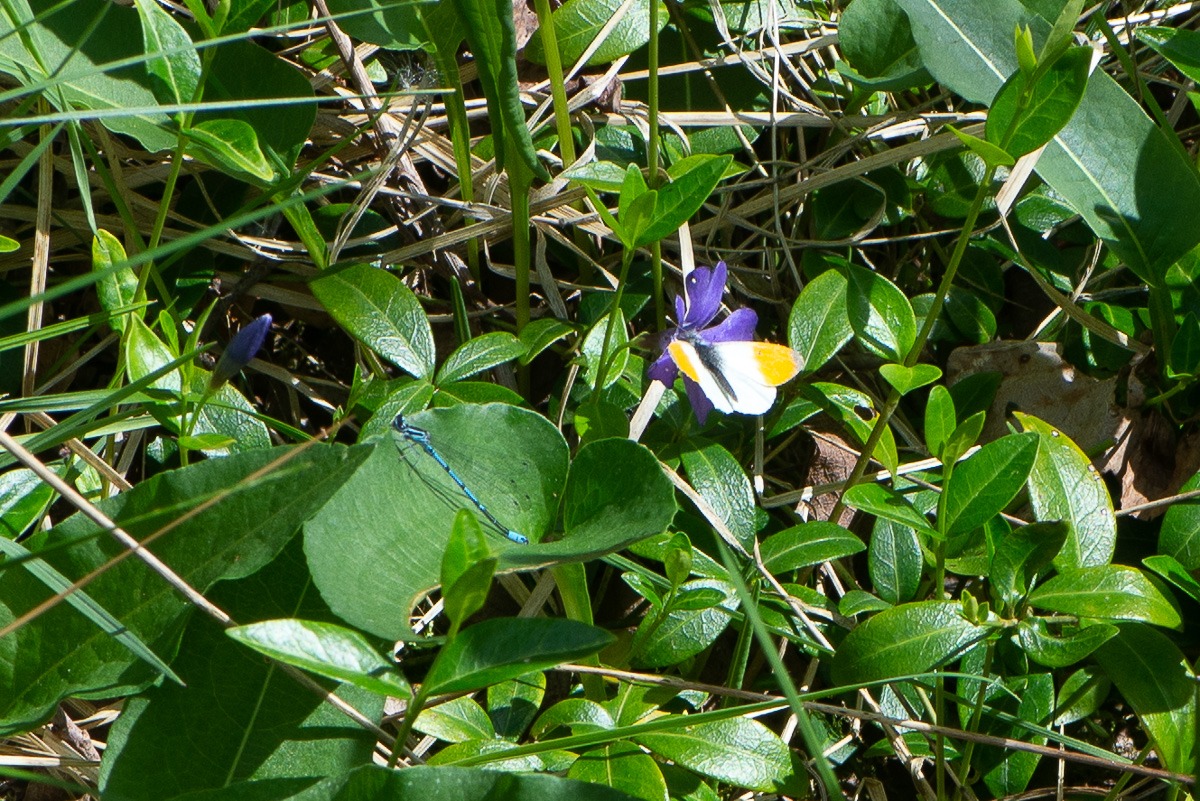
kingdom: Animalia
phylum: Arthropoda
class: Insecta
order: Lepidoptera
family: Pieridae
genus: Anthocharis
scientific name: Anthocharis cardamines
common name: Aurora
